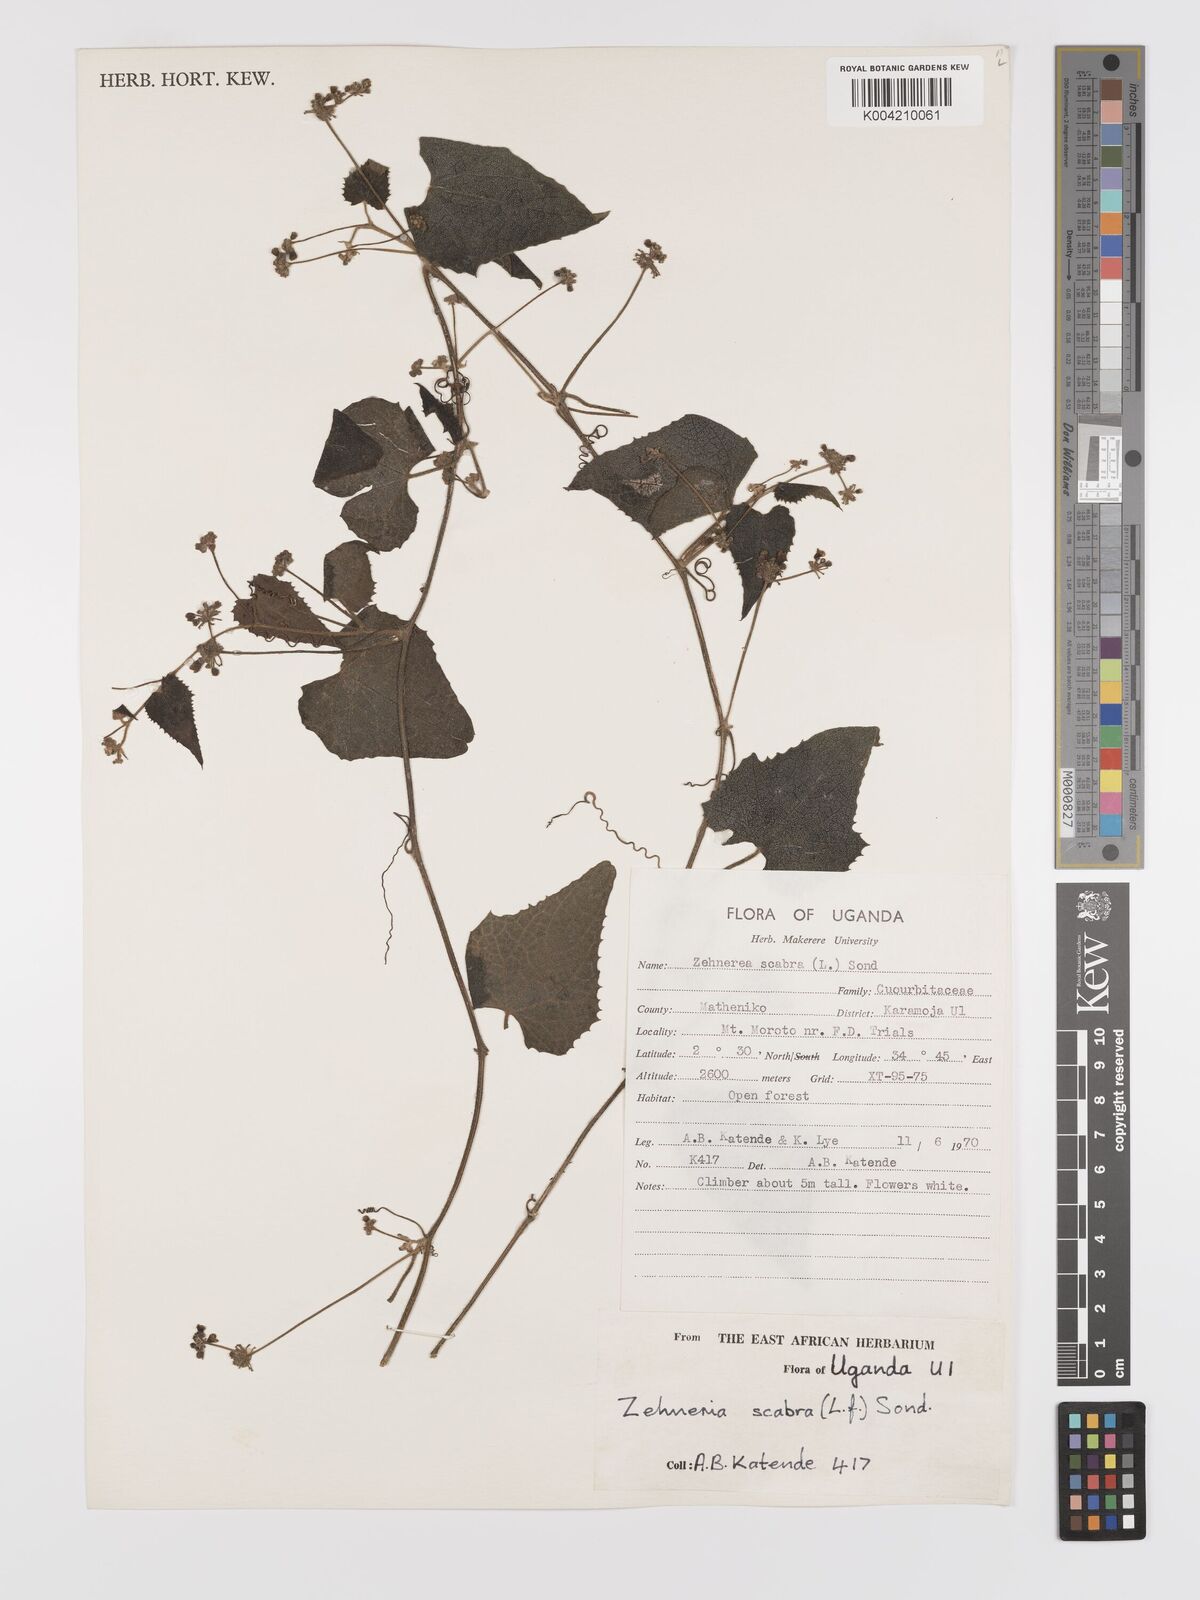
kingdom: Plantae
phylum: Tracheophyta
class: Magnoliopsida
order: Cucurbitales
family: Cucurbitaceae
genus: Zehneria
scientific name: Zehneria scabra
